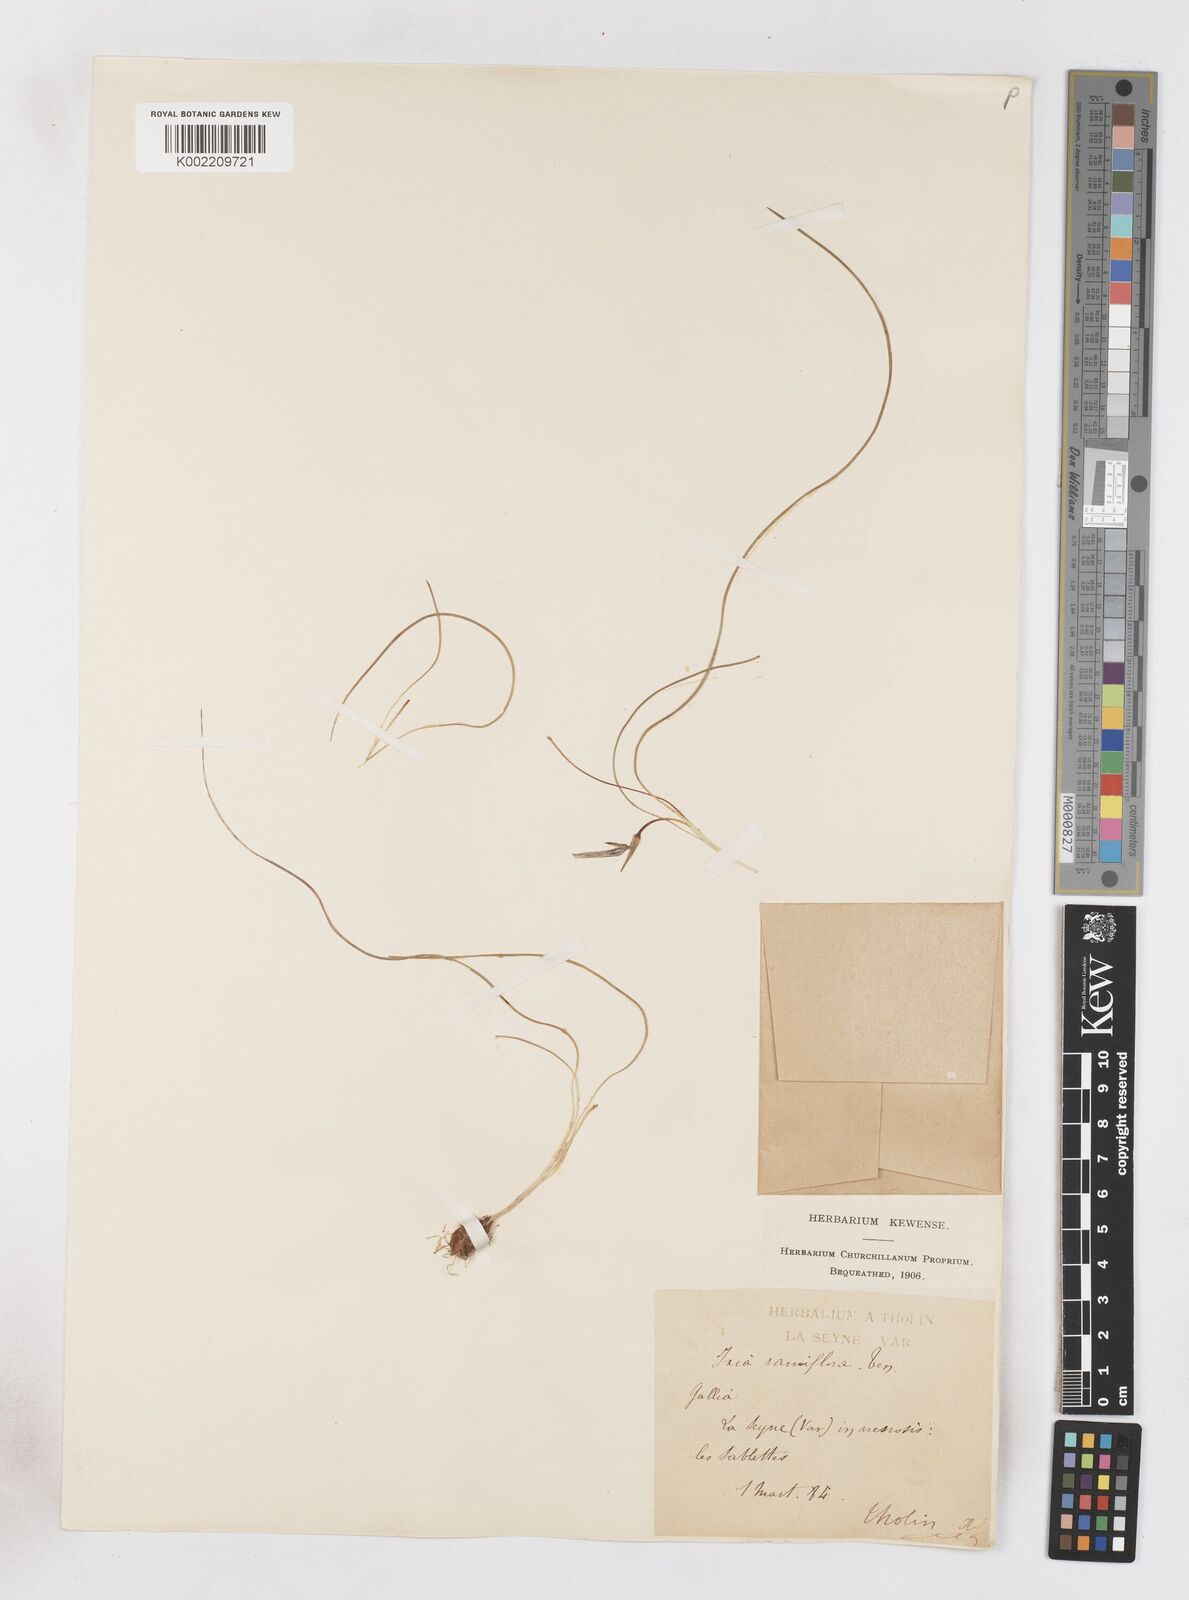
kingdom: Plantae
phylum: Tracheophyta
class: Liliopsida
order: Asparagales
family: Iridaceae
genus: Romulea
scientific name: Romulea columnae
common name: Sand-crocus
